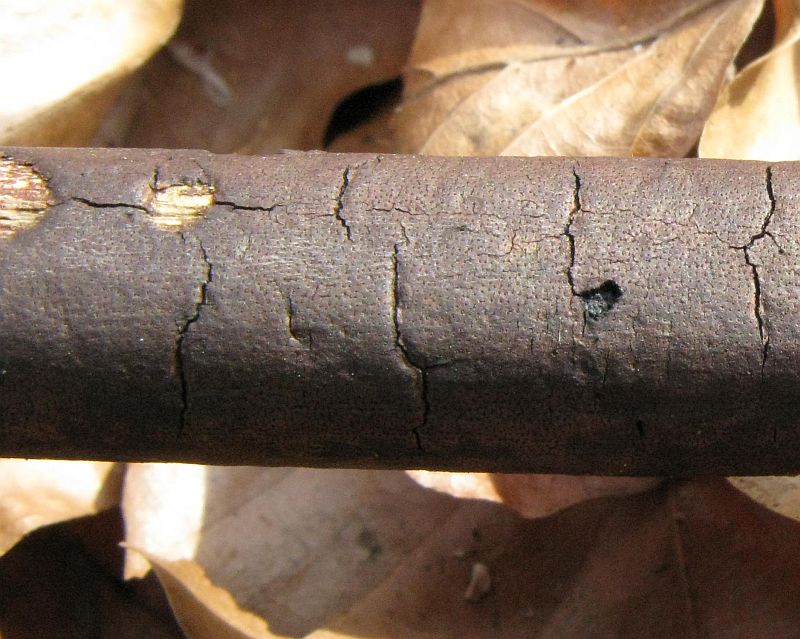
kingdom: Fungi
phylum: Ascomycota
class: Sordariomycetes
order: Xylariales
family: Diatrypaceae
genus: Diatrype
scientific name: Diatrype decorticata
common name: barksprænger-kulskorpe
